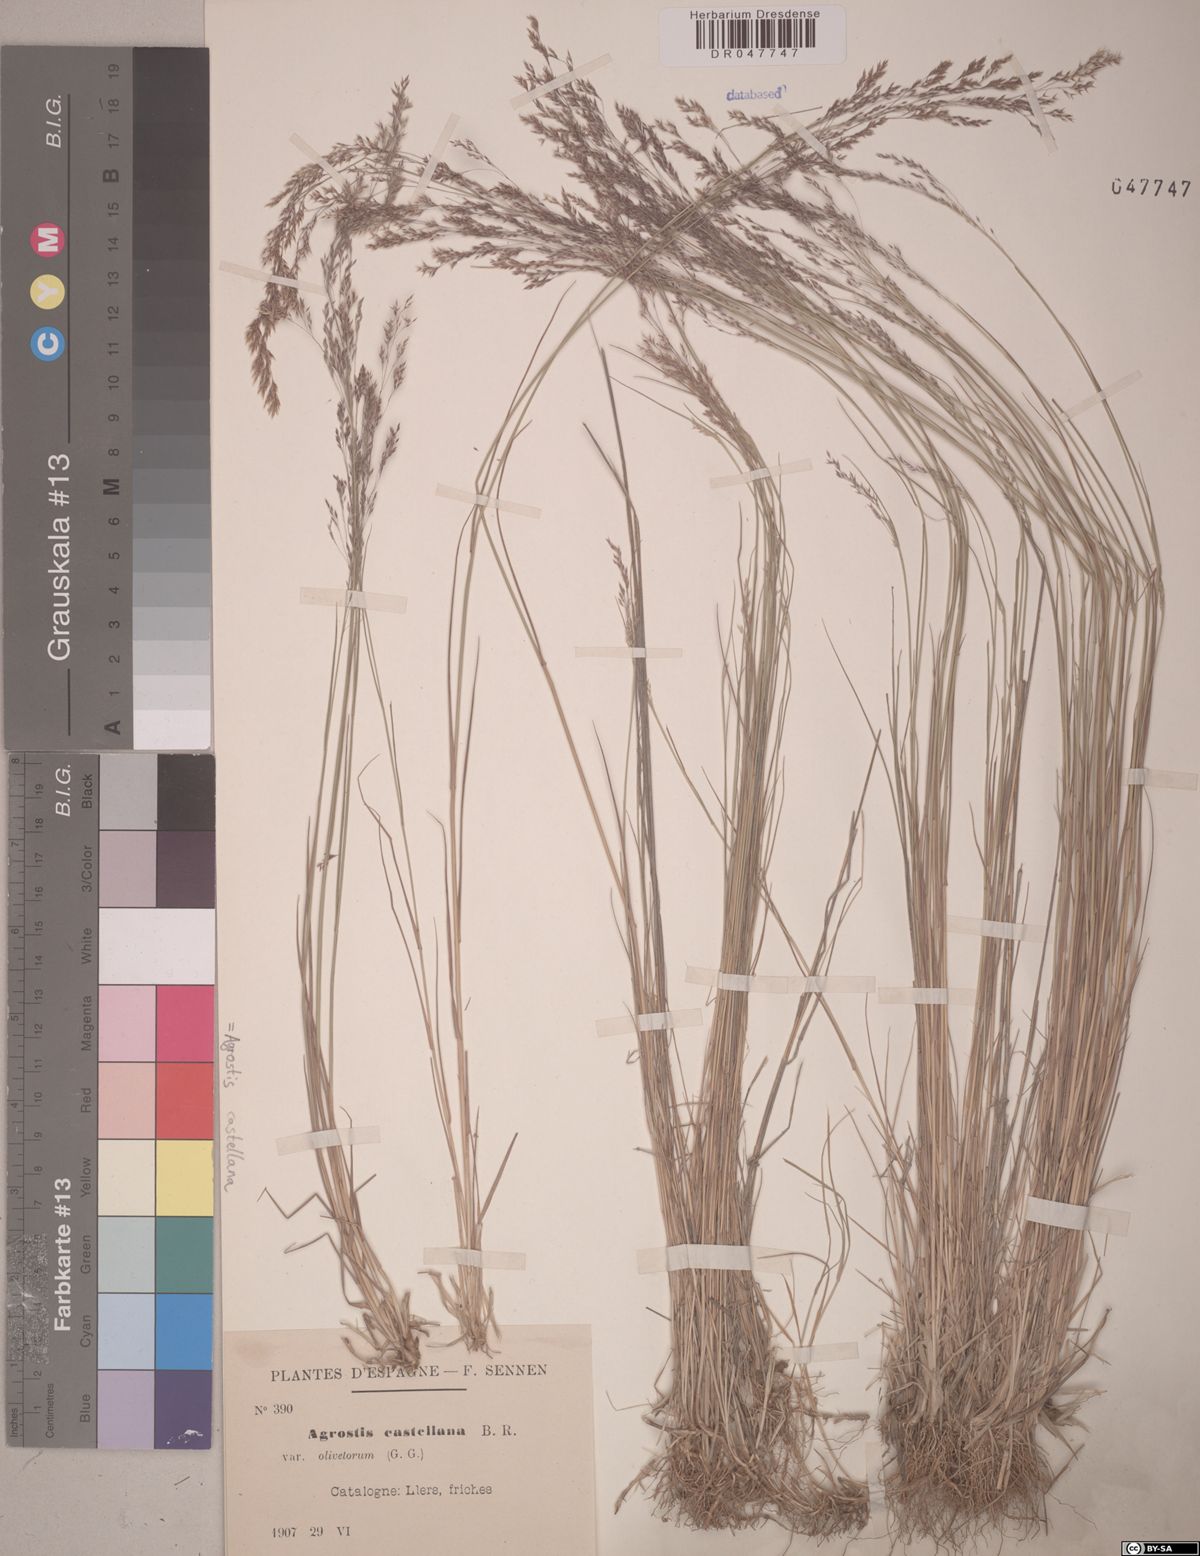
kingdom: Plantae
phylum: Tracheophyta
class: Liliopsida
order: Poales
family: Poaceae
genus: Agrostis
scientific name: Agrostis castellana
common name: Highland bent
